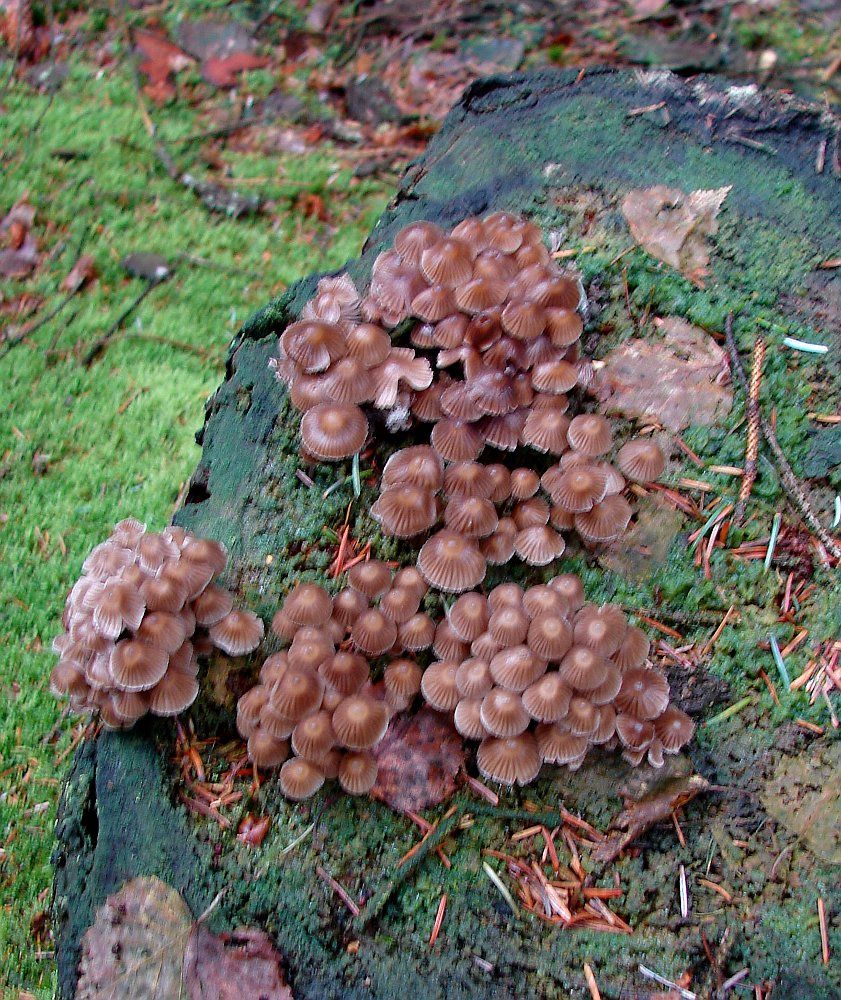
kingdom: Fungi
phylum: Basidiomycota
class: Agaricomycetes
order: Agaricales
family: Mycenaceae
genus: Mycena
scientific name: Mycena stipata
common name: stinkende huesvamp
